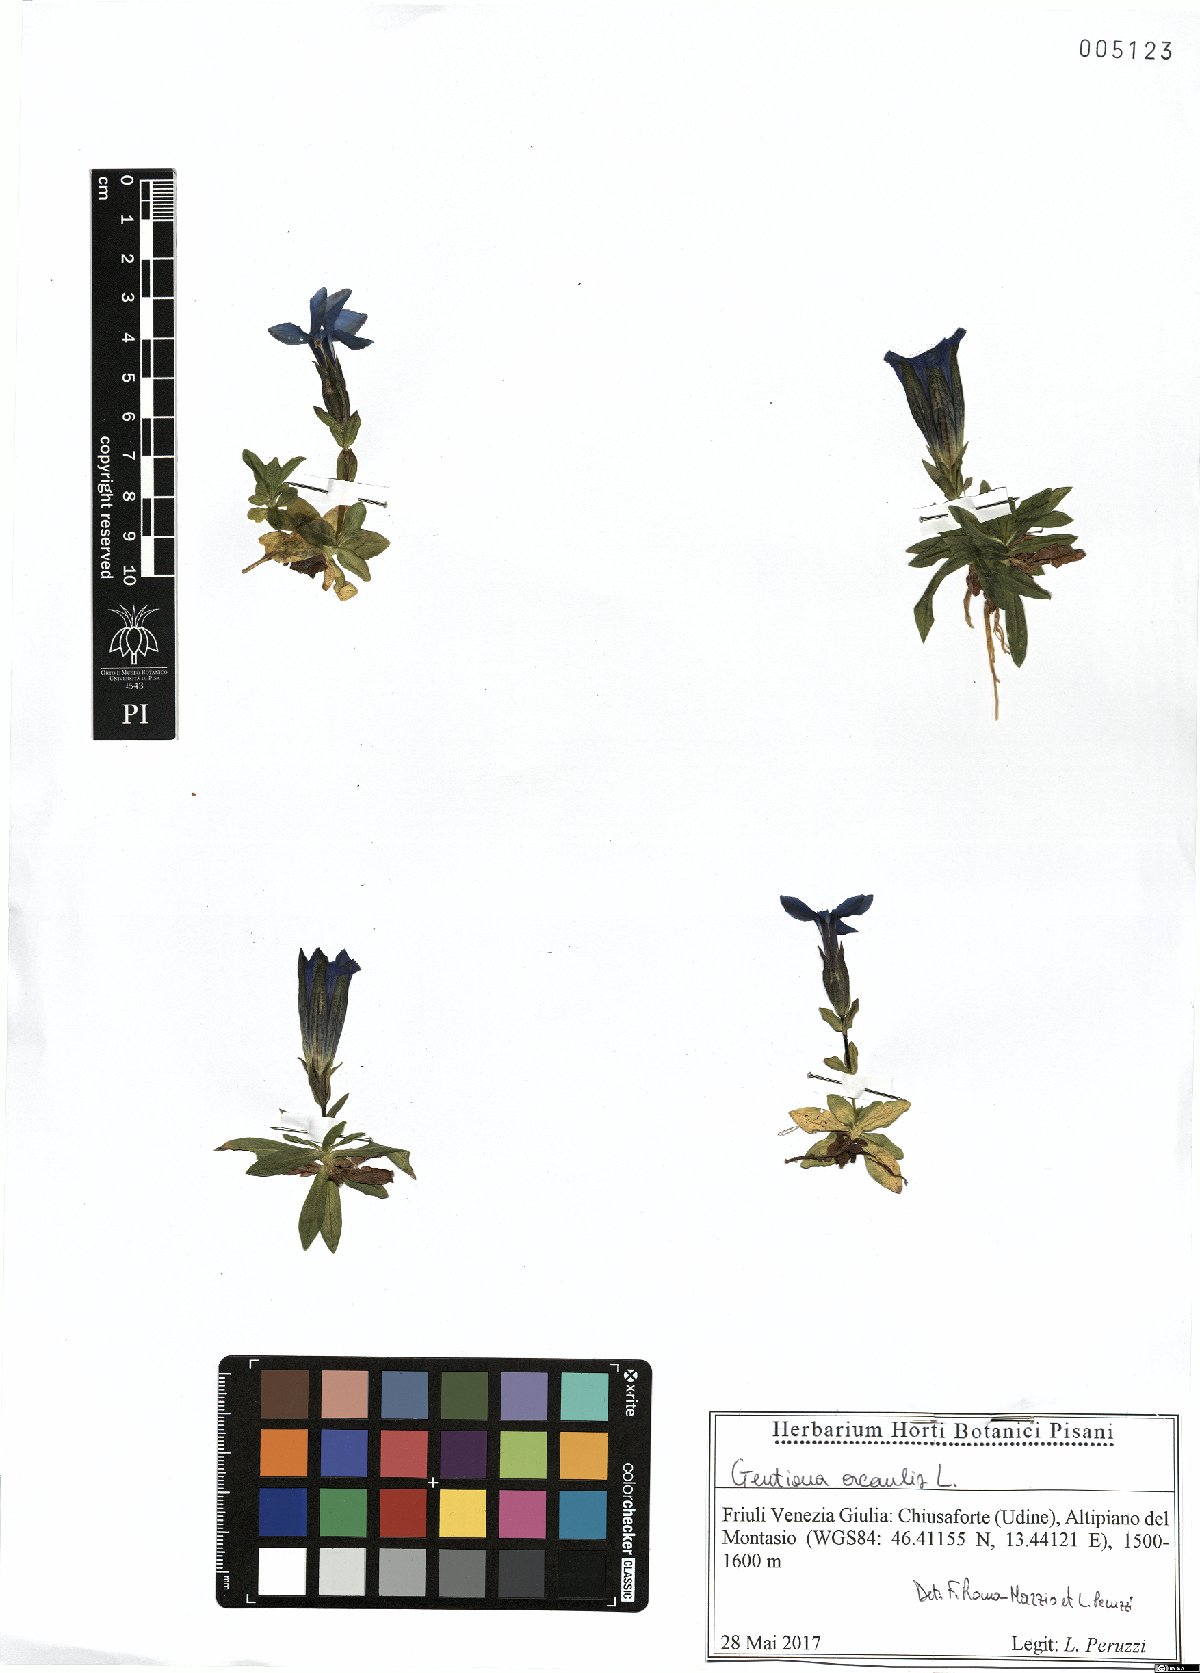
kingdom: Plantae
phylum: Tracheophyta
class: Magnoliopsida
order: Gentianales
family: Gentianaceae
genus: Gentiana
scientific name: Gentiana acaulis
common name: Trumpet gentian
